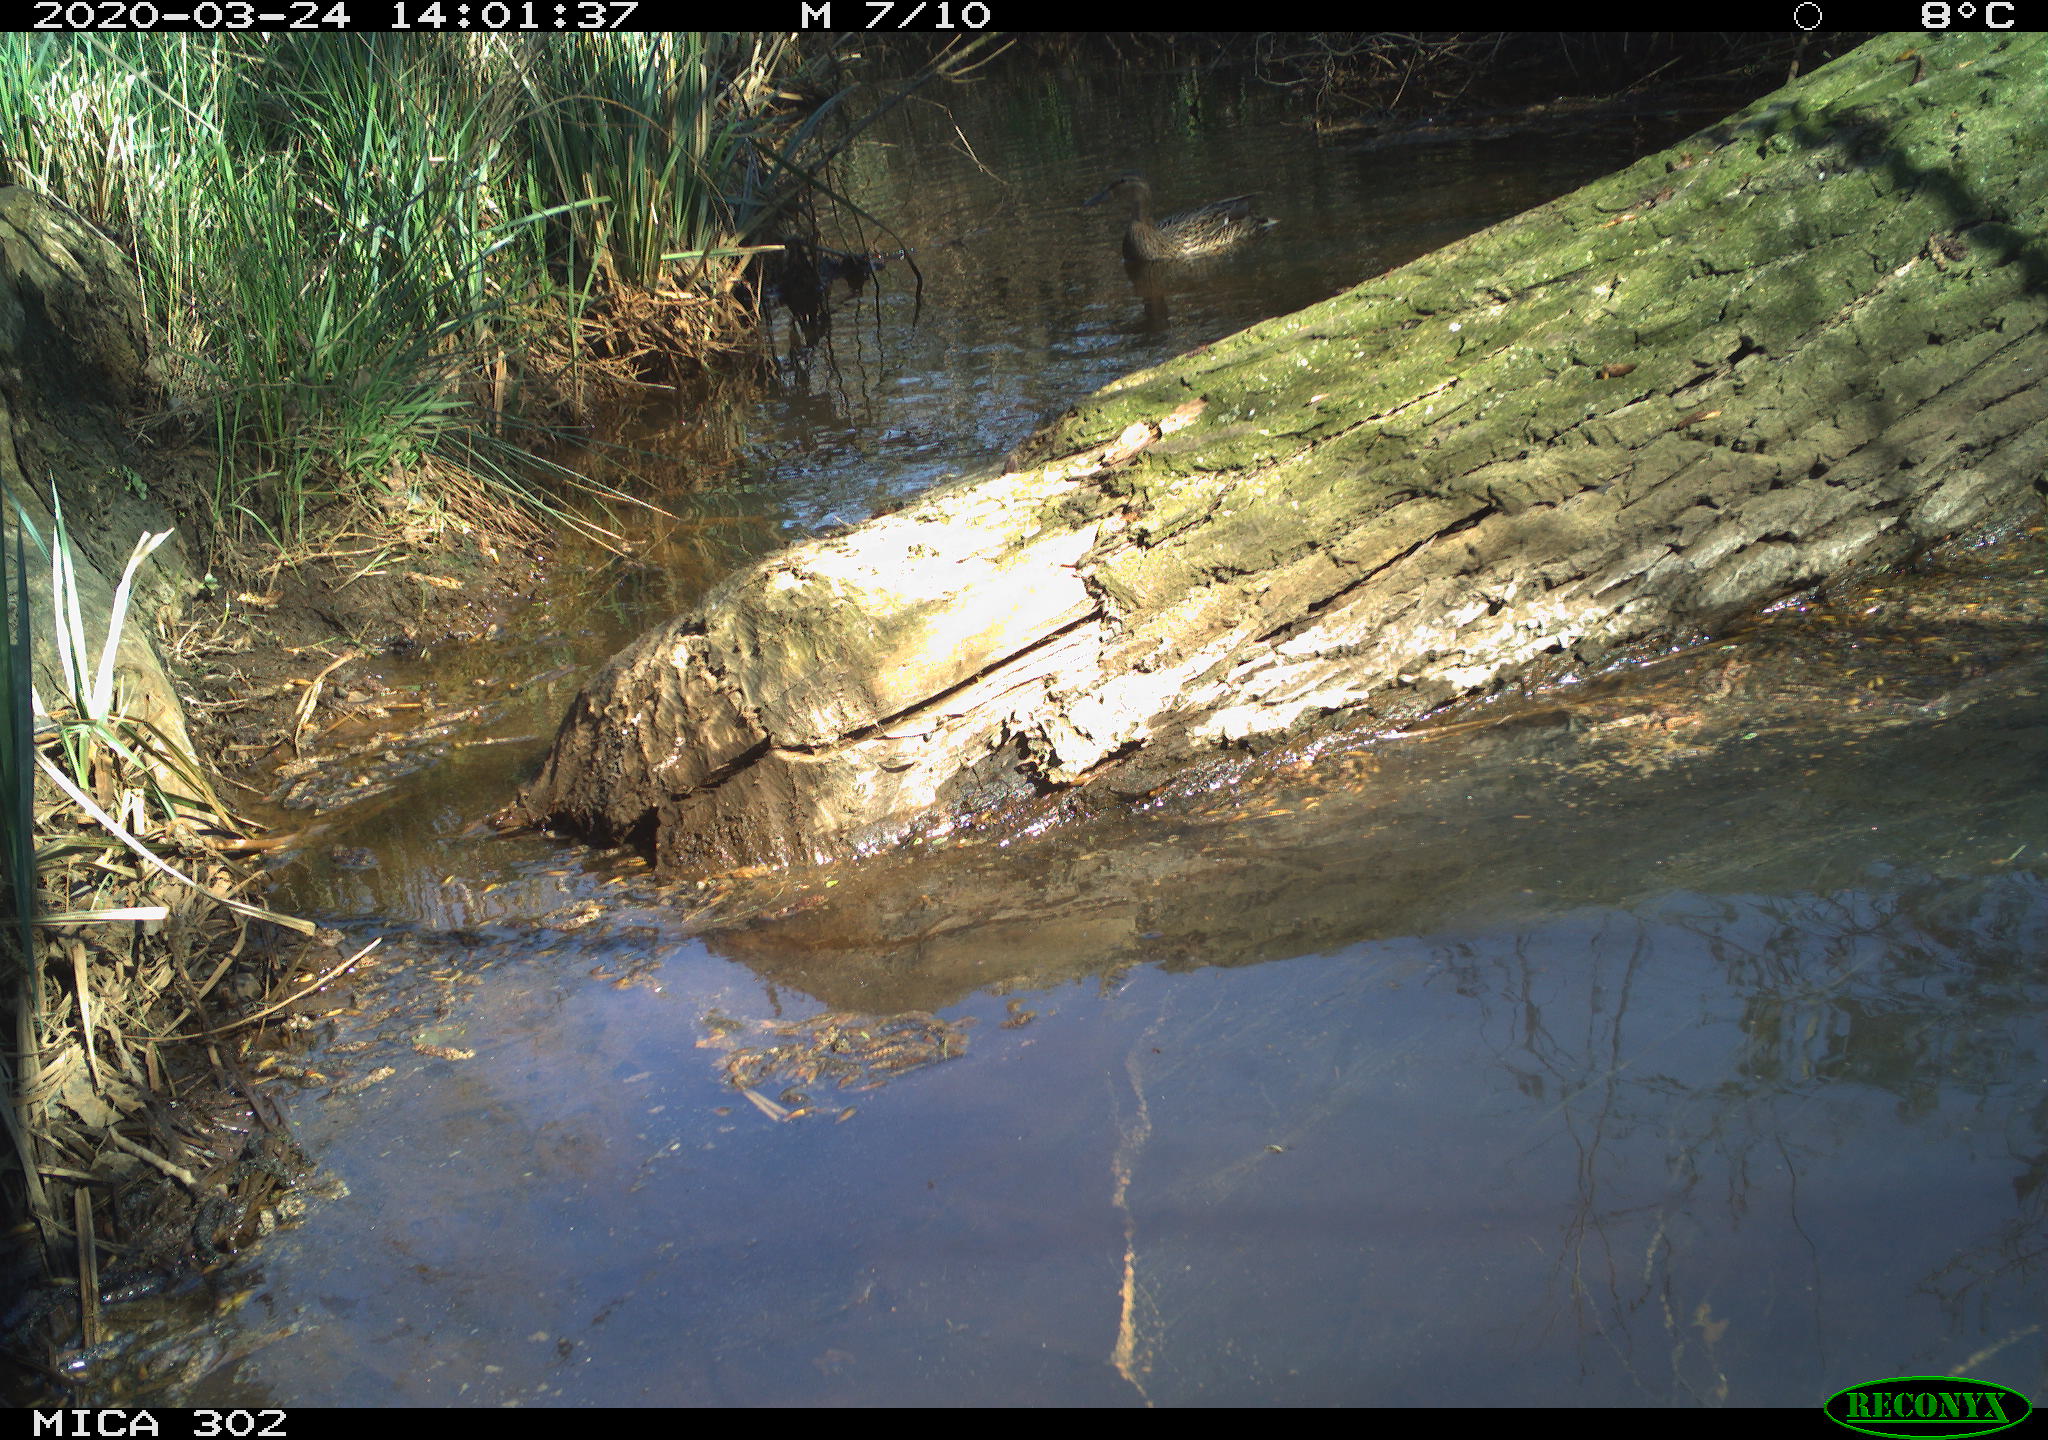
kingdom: Animalia
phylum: Chordata
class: Aves
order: Anseriformes
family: Anatidae
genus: Anas
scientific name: Anas platyrhynchos
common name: Mallard
